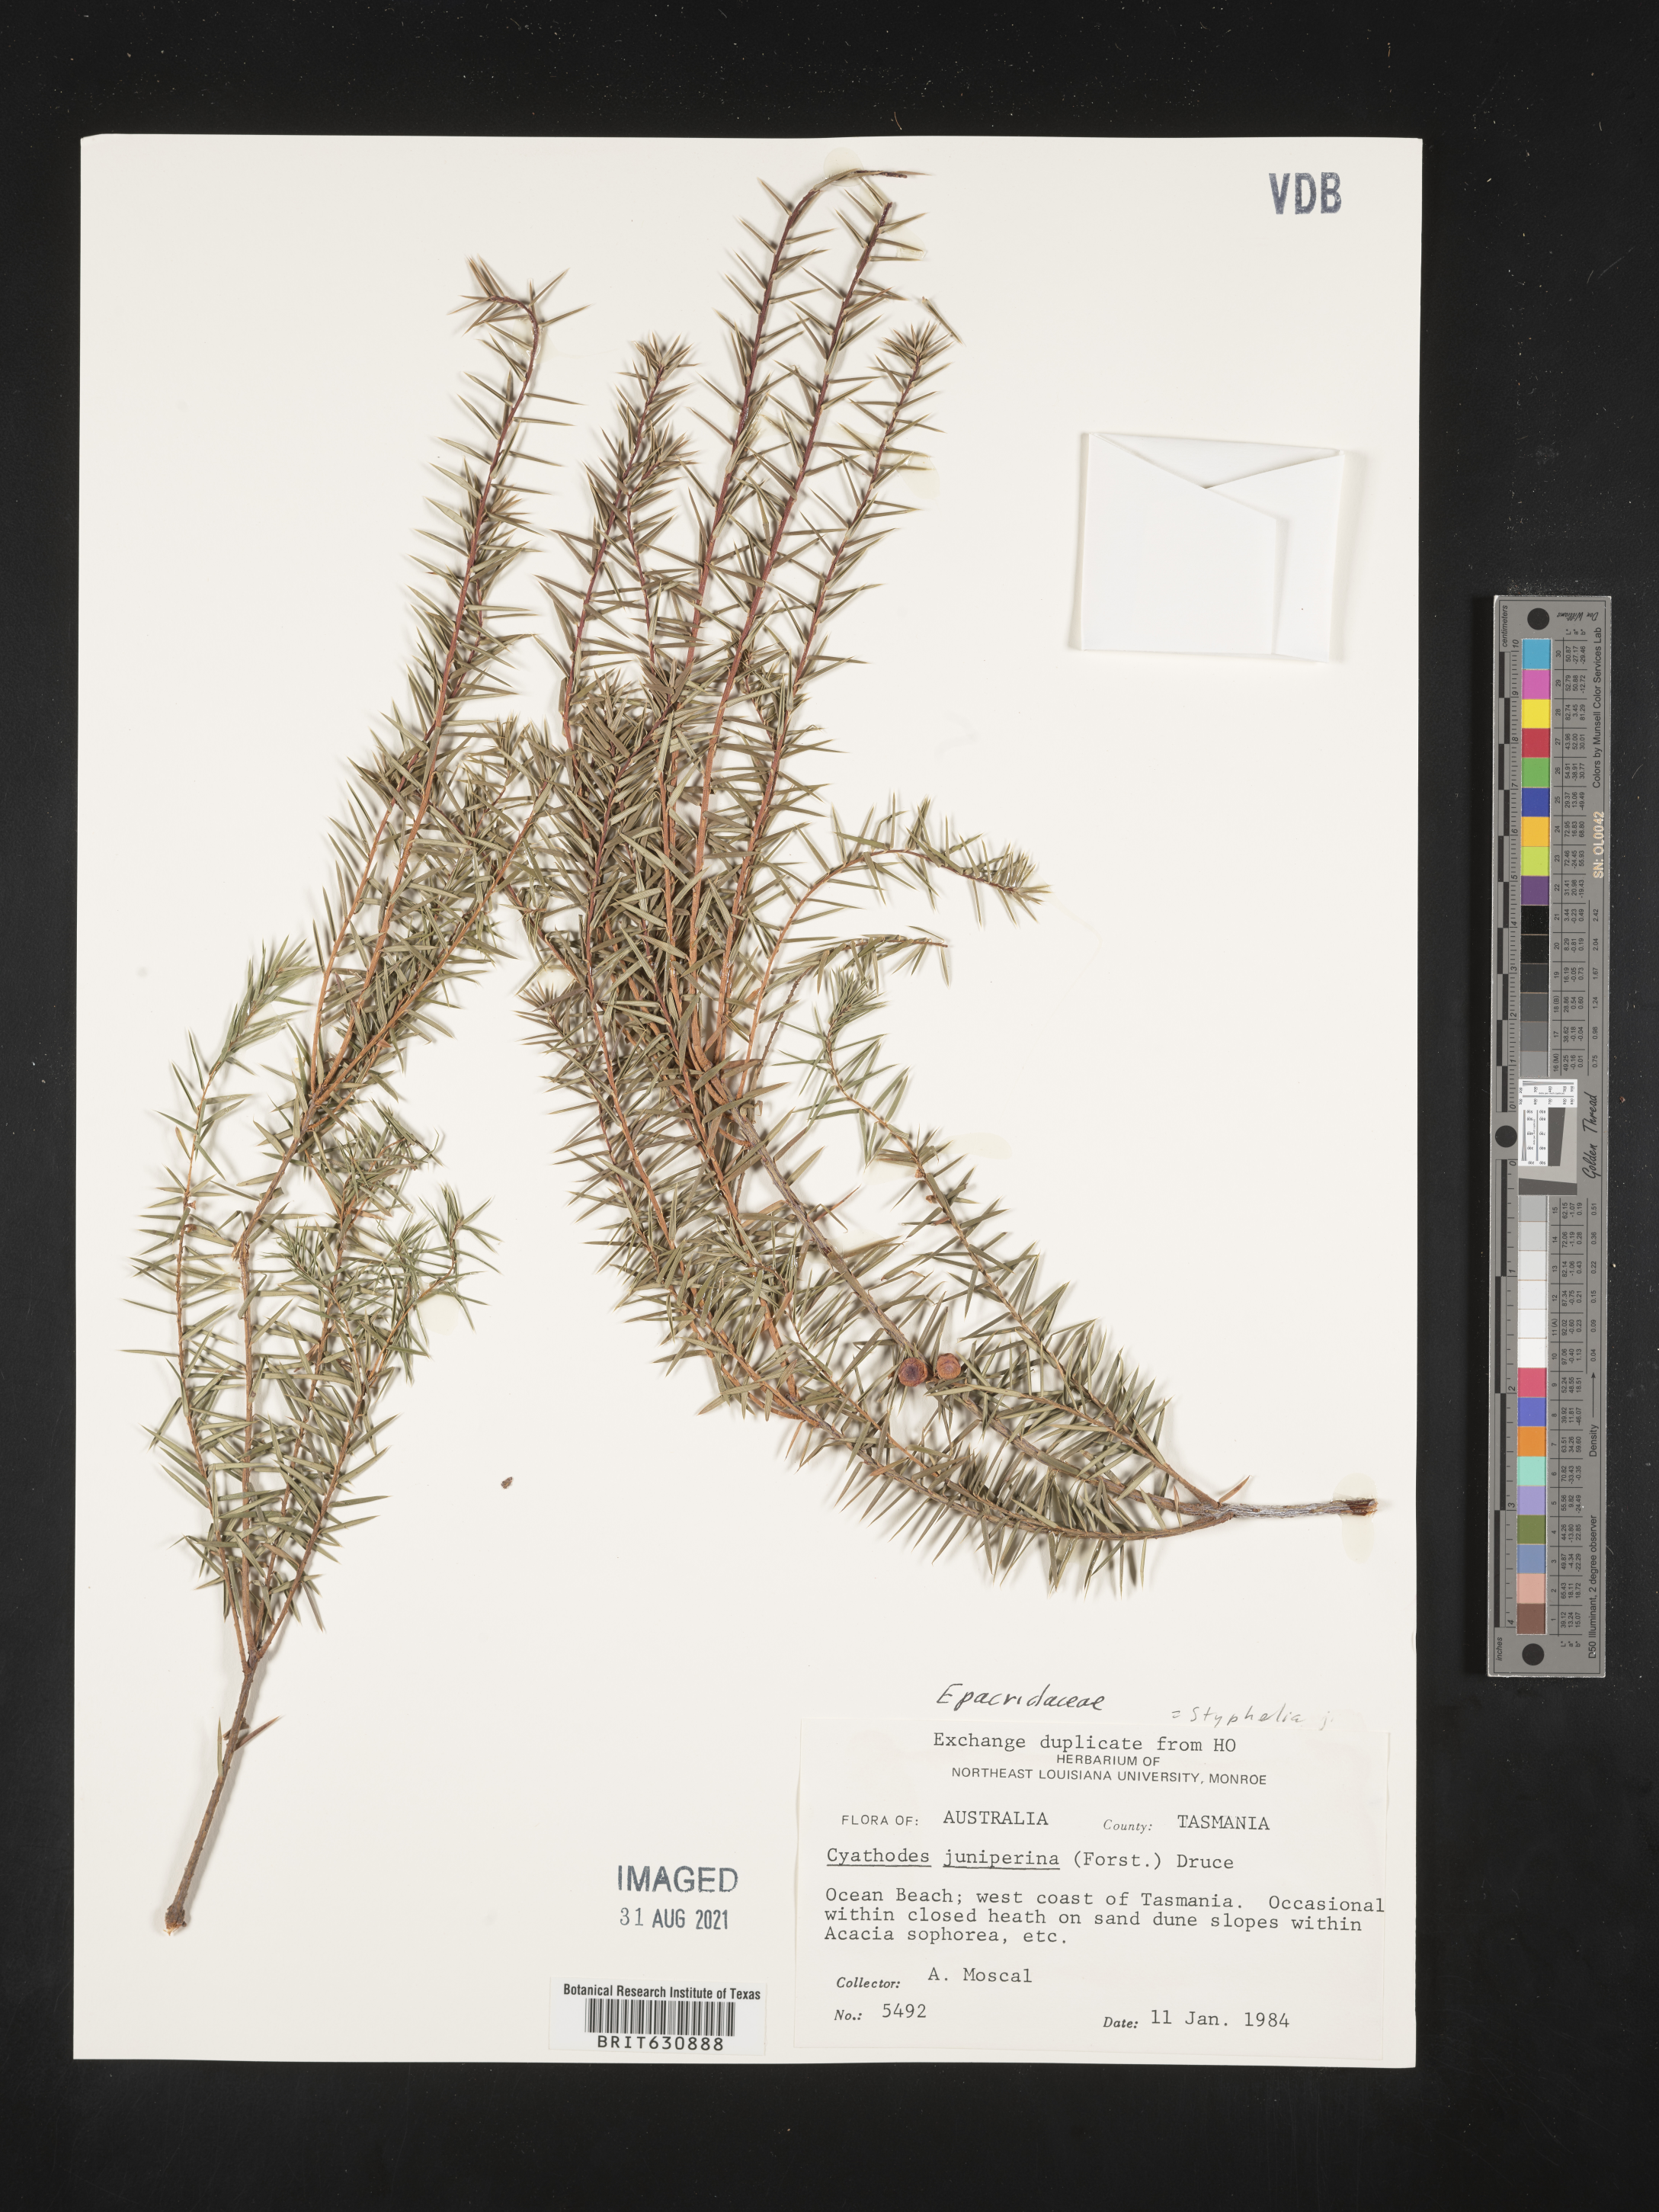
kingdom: Plantae
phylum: Tracheophyta
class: Magnoliopsida
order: Ericales
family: Ericaceae
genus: Styphelia
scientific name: Styphelia
